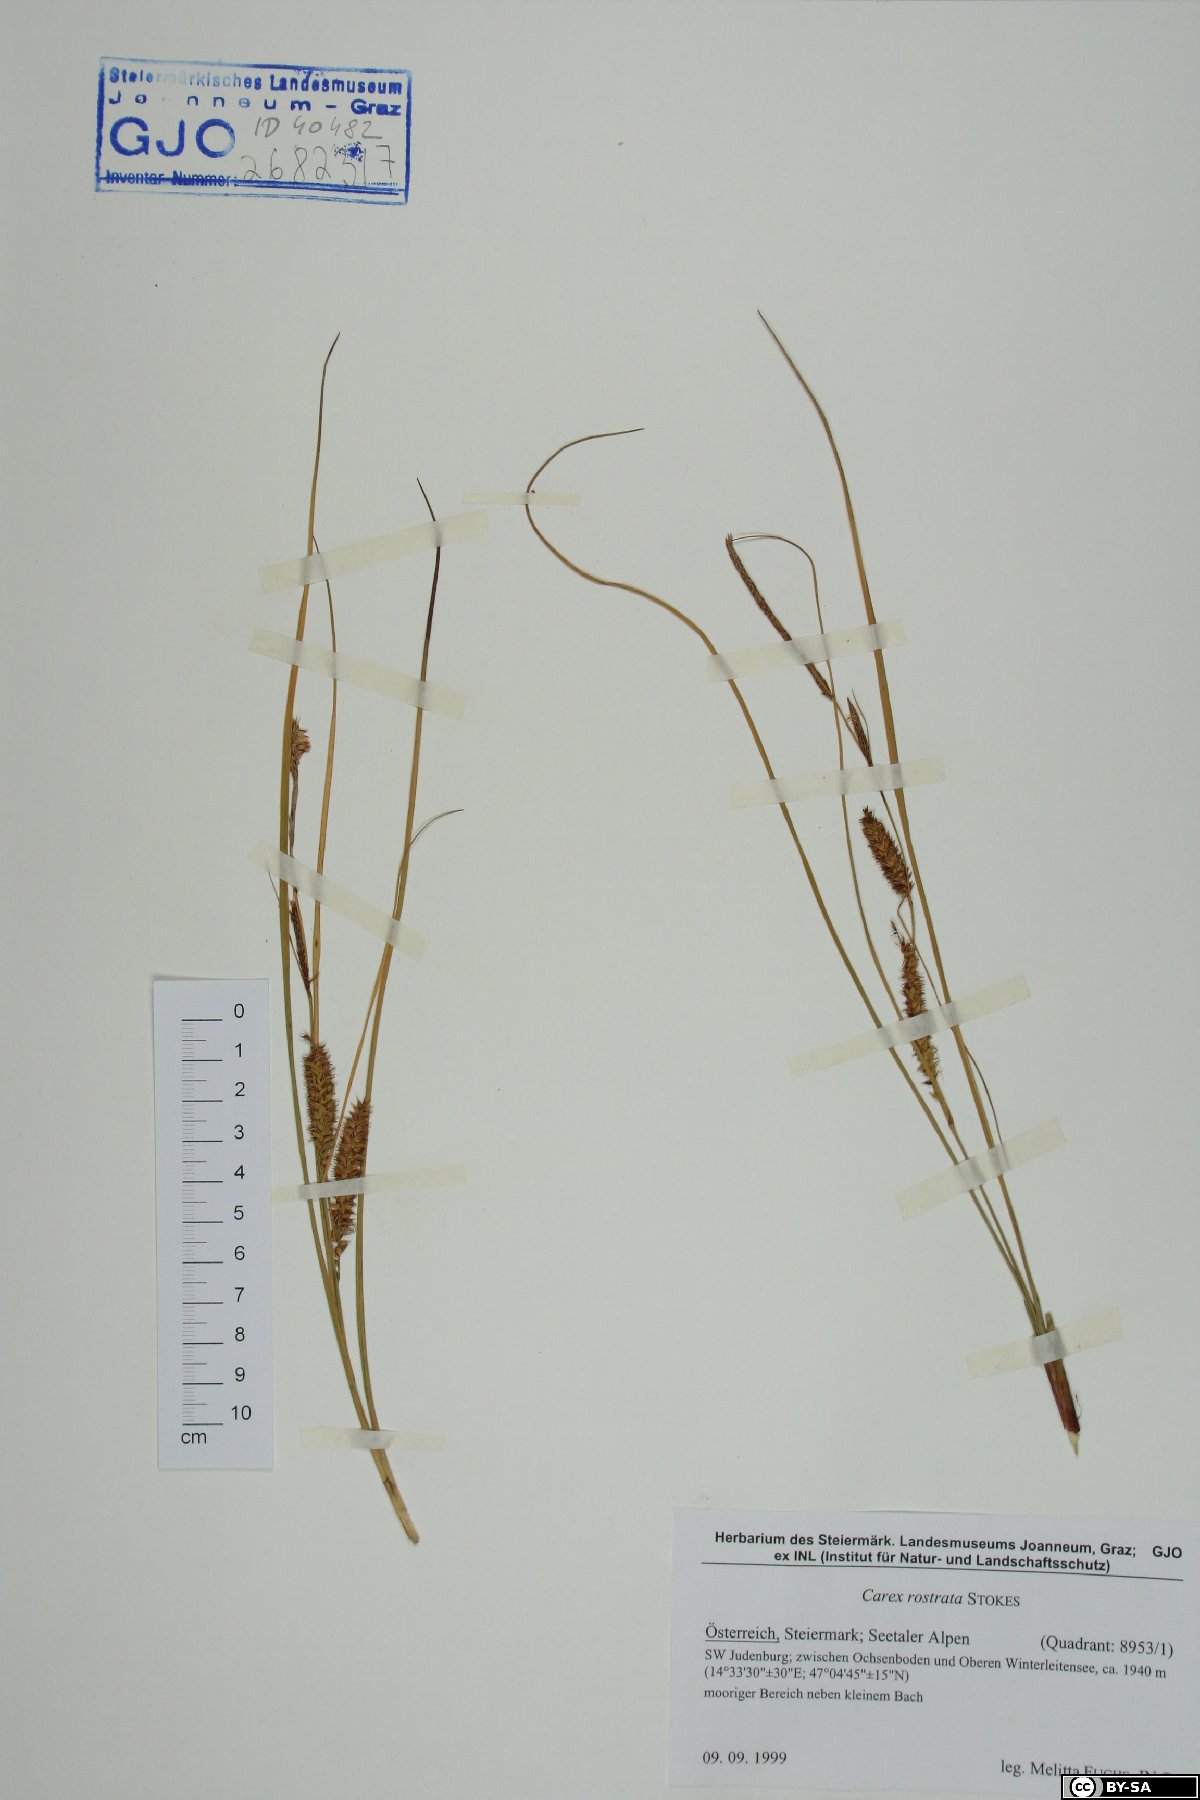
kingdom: Plantae
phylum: Tracheophyta
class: Liliopsida
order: Poales
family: Cyperaceae
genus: Carex
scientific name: Carex rostrata
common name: Bottle sedge
